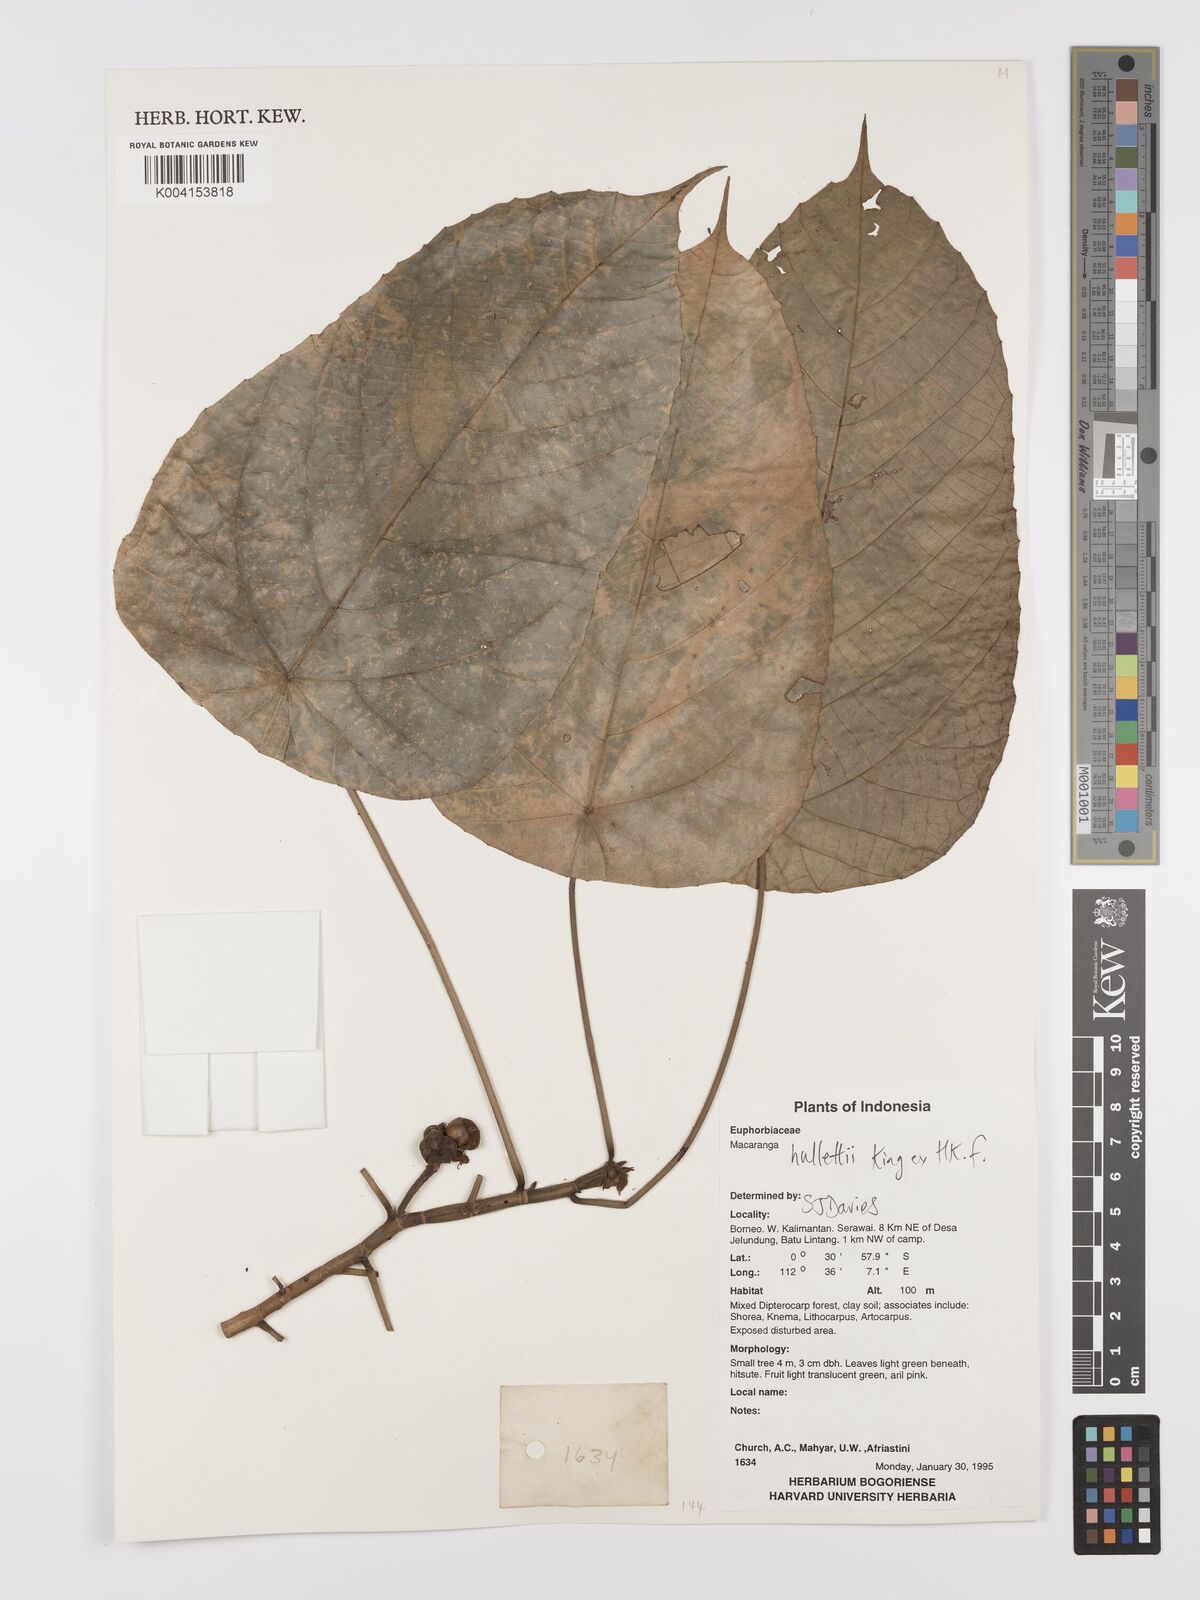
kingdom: Plantae
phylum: Tracheophyta
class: Magnoliopsida
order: Malpighiales
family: Euphorbiaceae
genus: Macaranga
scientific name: Macaranga hullettii
